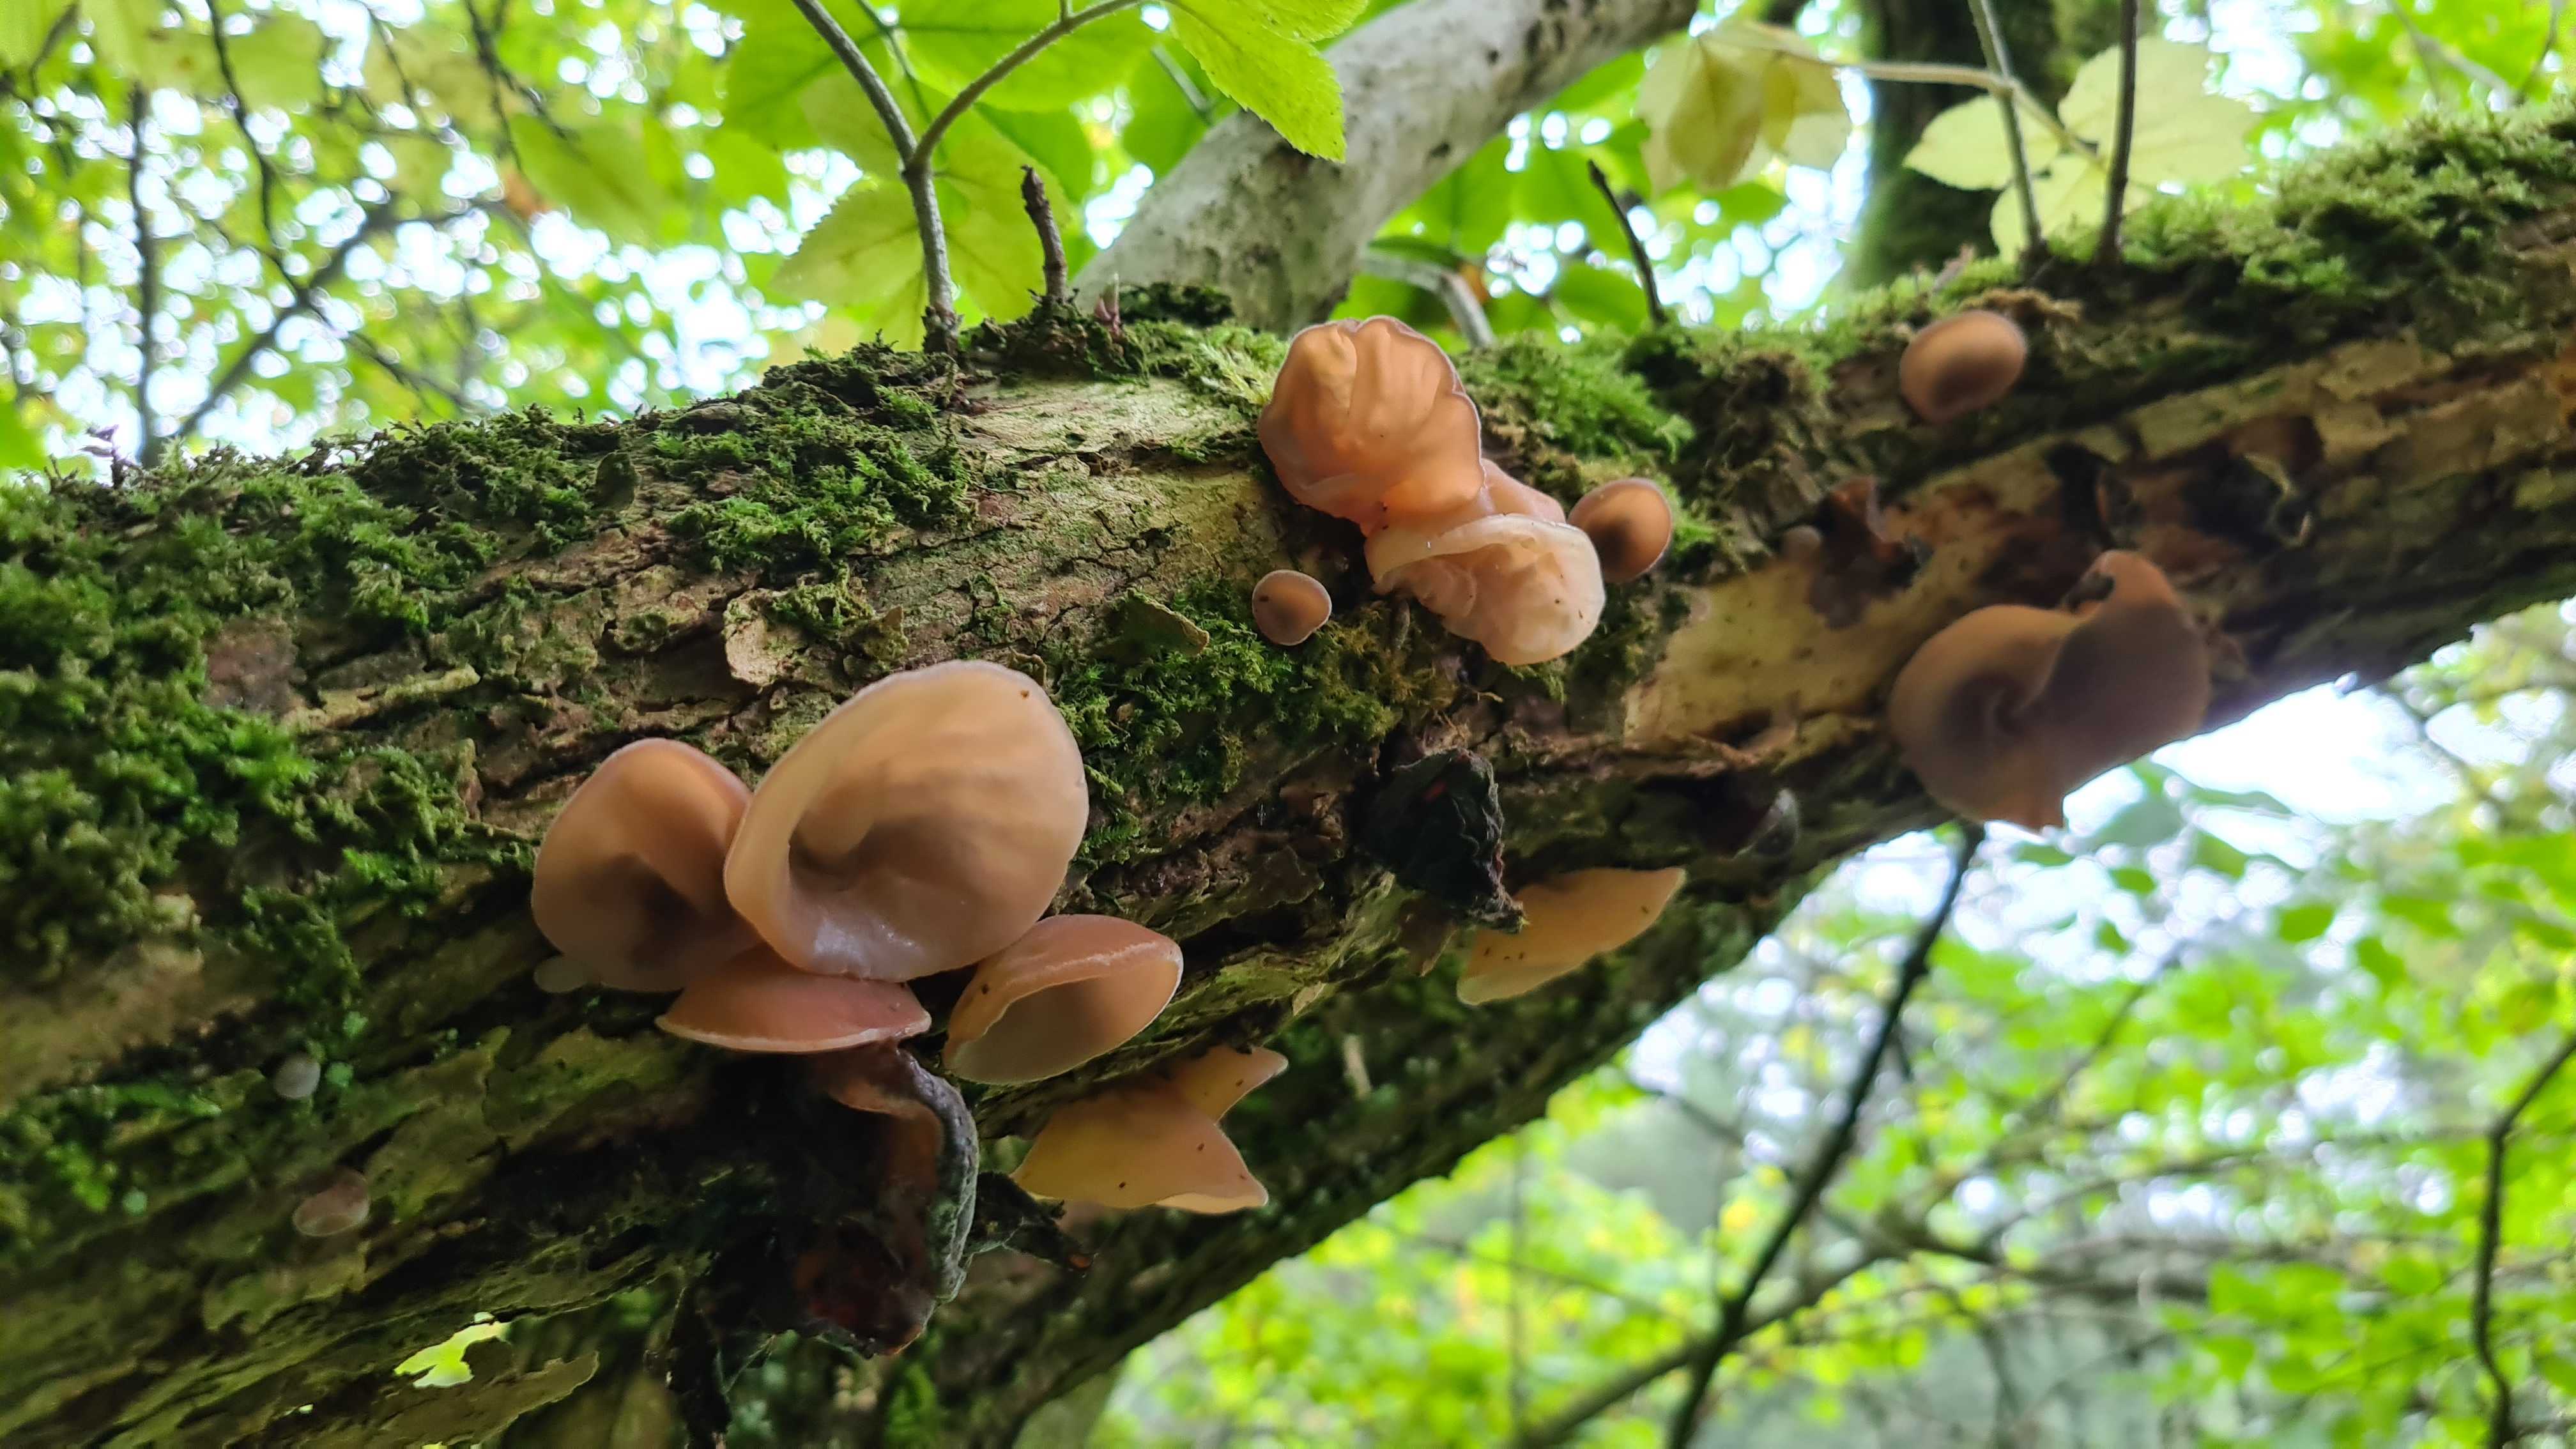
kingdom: Fungi
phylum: Basidiomycota
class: Agaricomycetes
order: Auriculariales
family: Auriculariaceae
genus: Auricularia
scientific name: Auricularia auricula-judae
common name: almindelig judasøre
